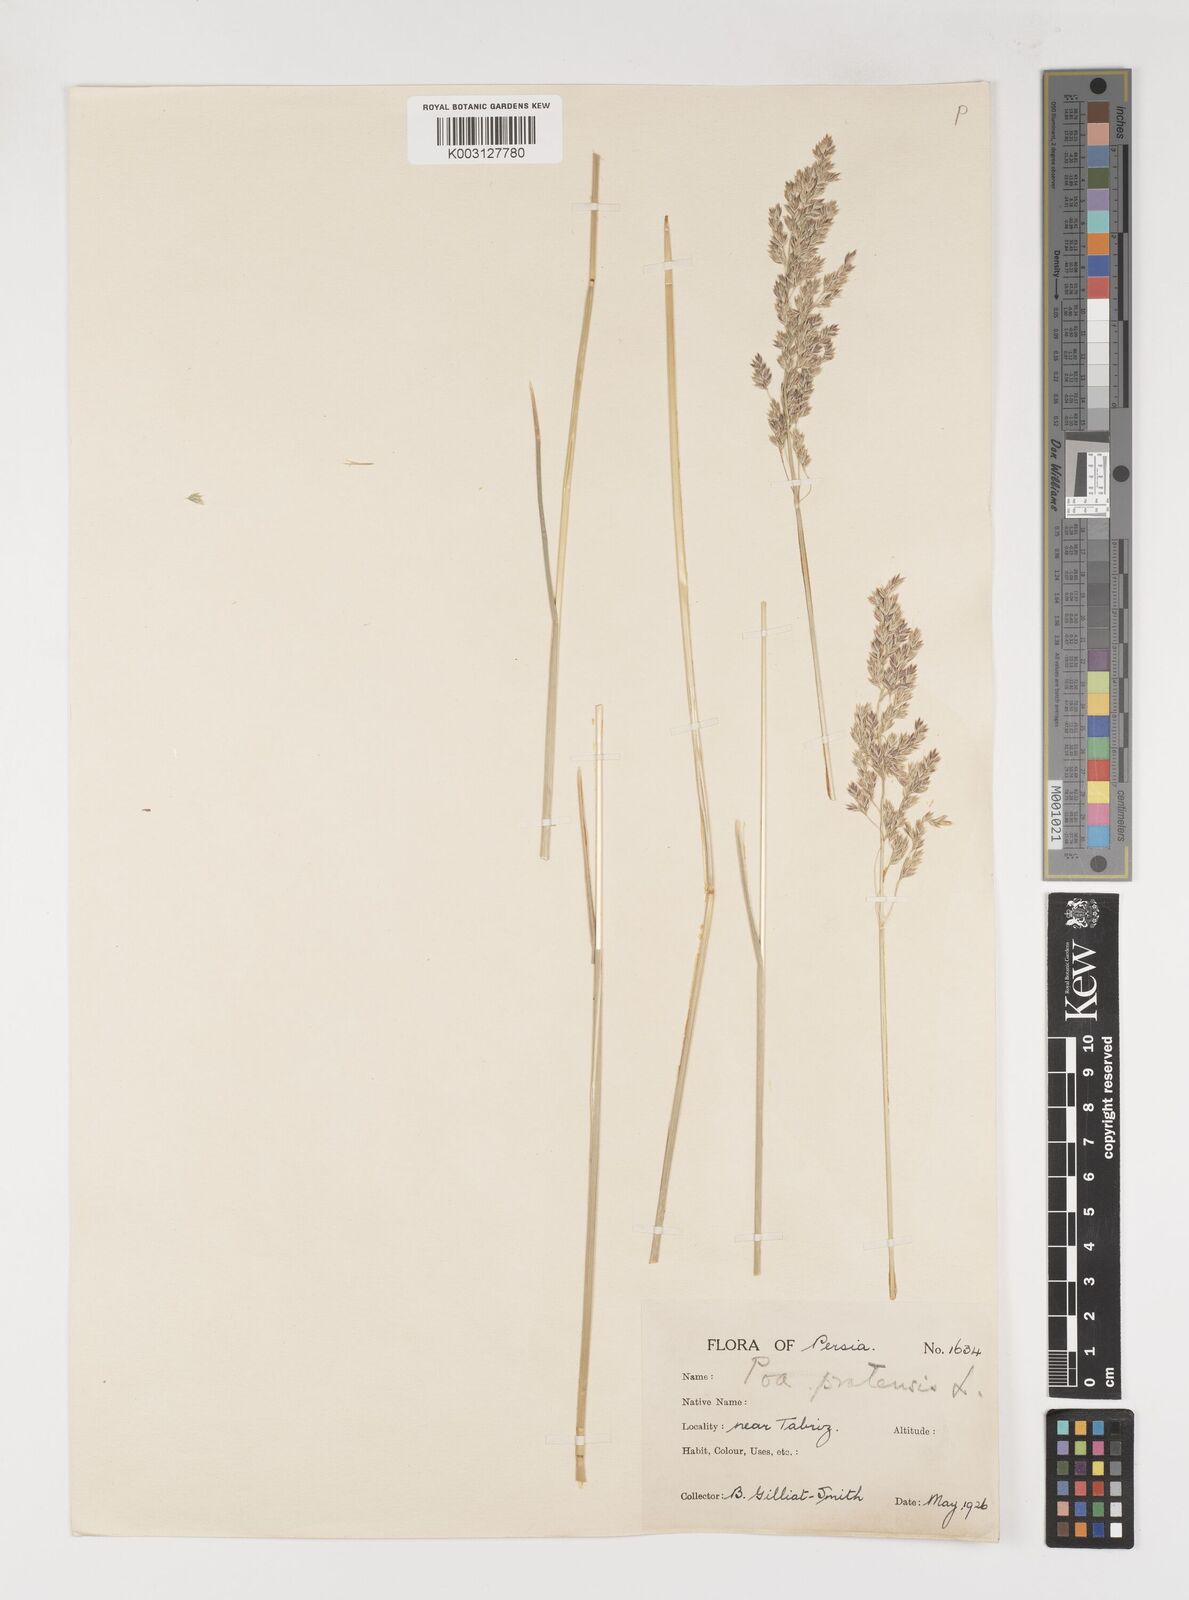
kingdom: Plantae
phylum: Tracheophyta
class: Liliopsida
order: Poales
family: Poaceae
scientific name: Poaceae
